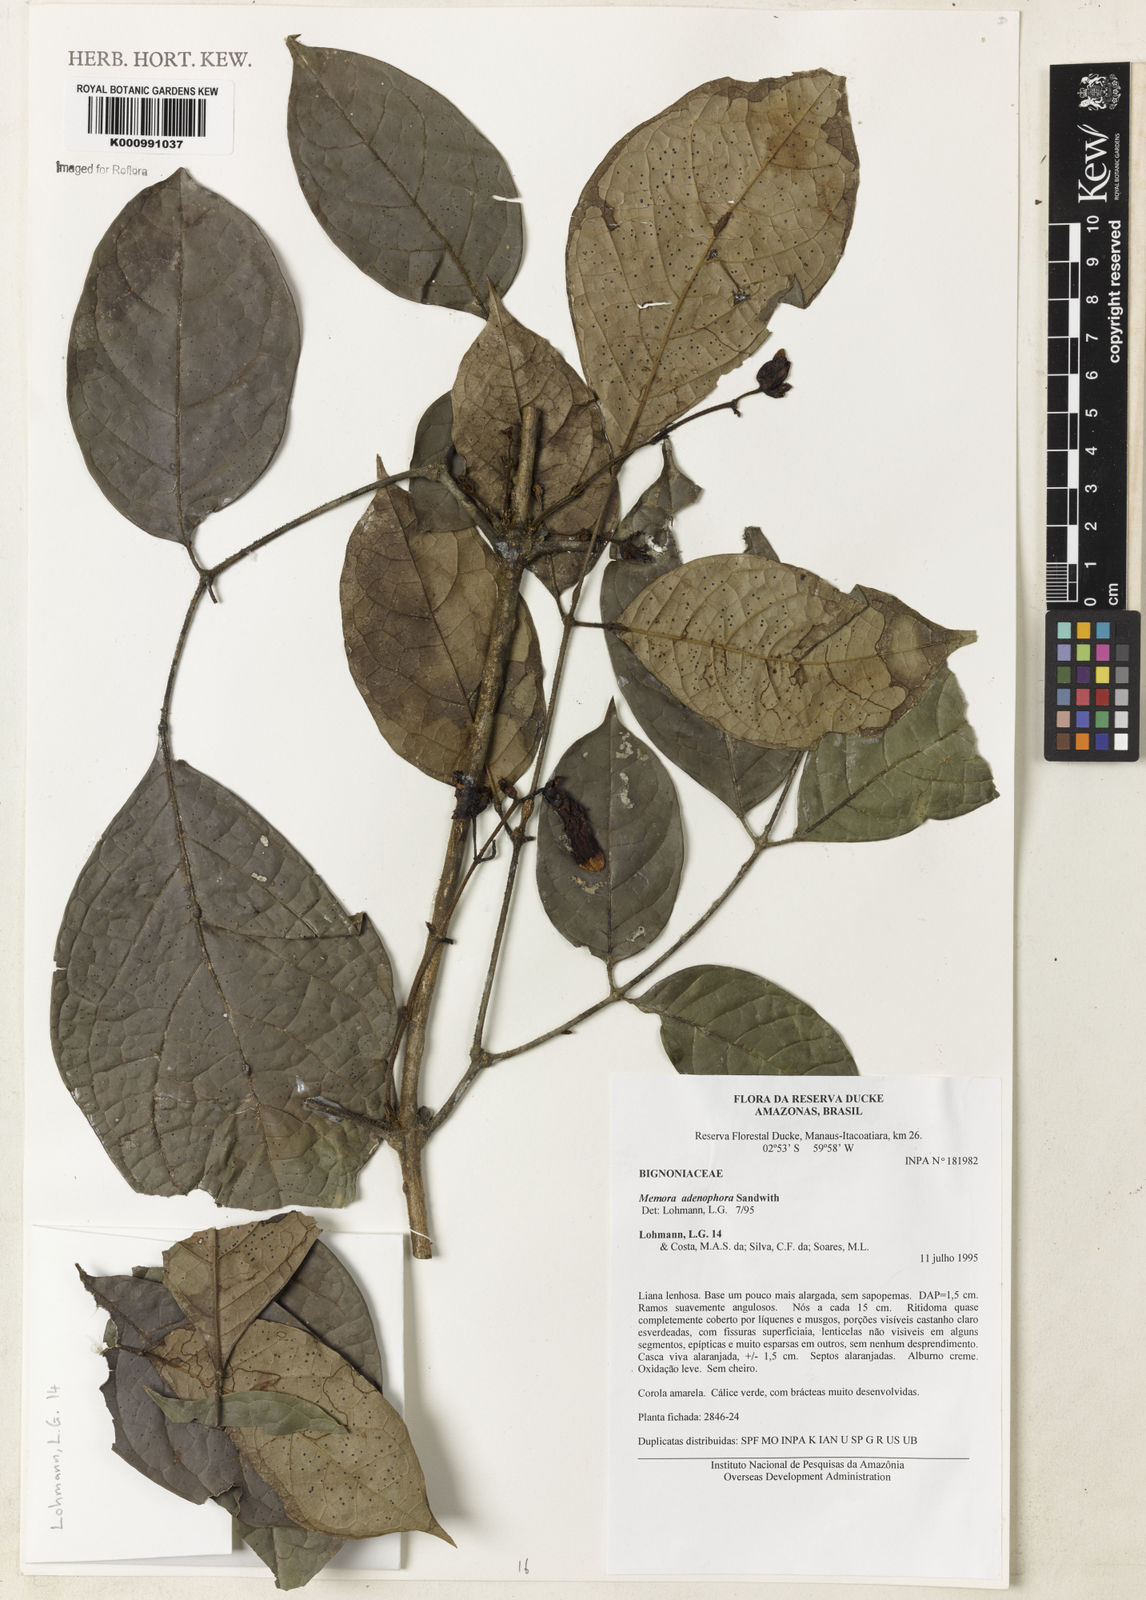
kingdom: Plantae
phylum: Tracheophyta
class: Magnoliopsida
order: Lamiales
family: Bignoniaceae
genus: Adenocalymma
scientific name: Adenocalymma adenophorum
